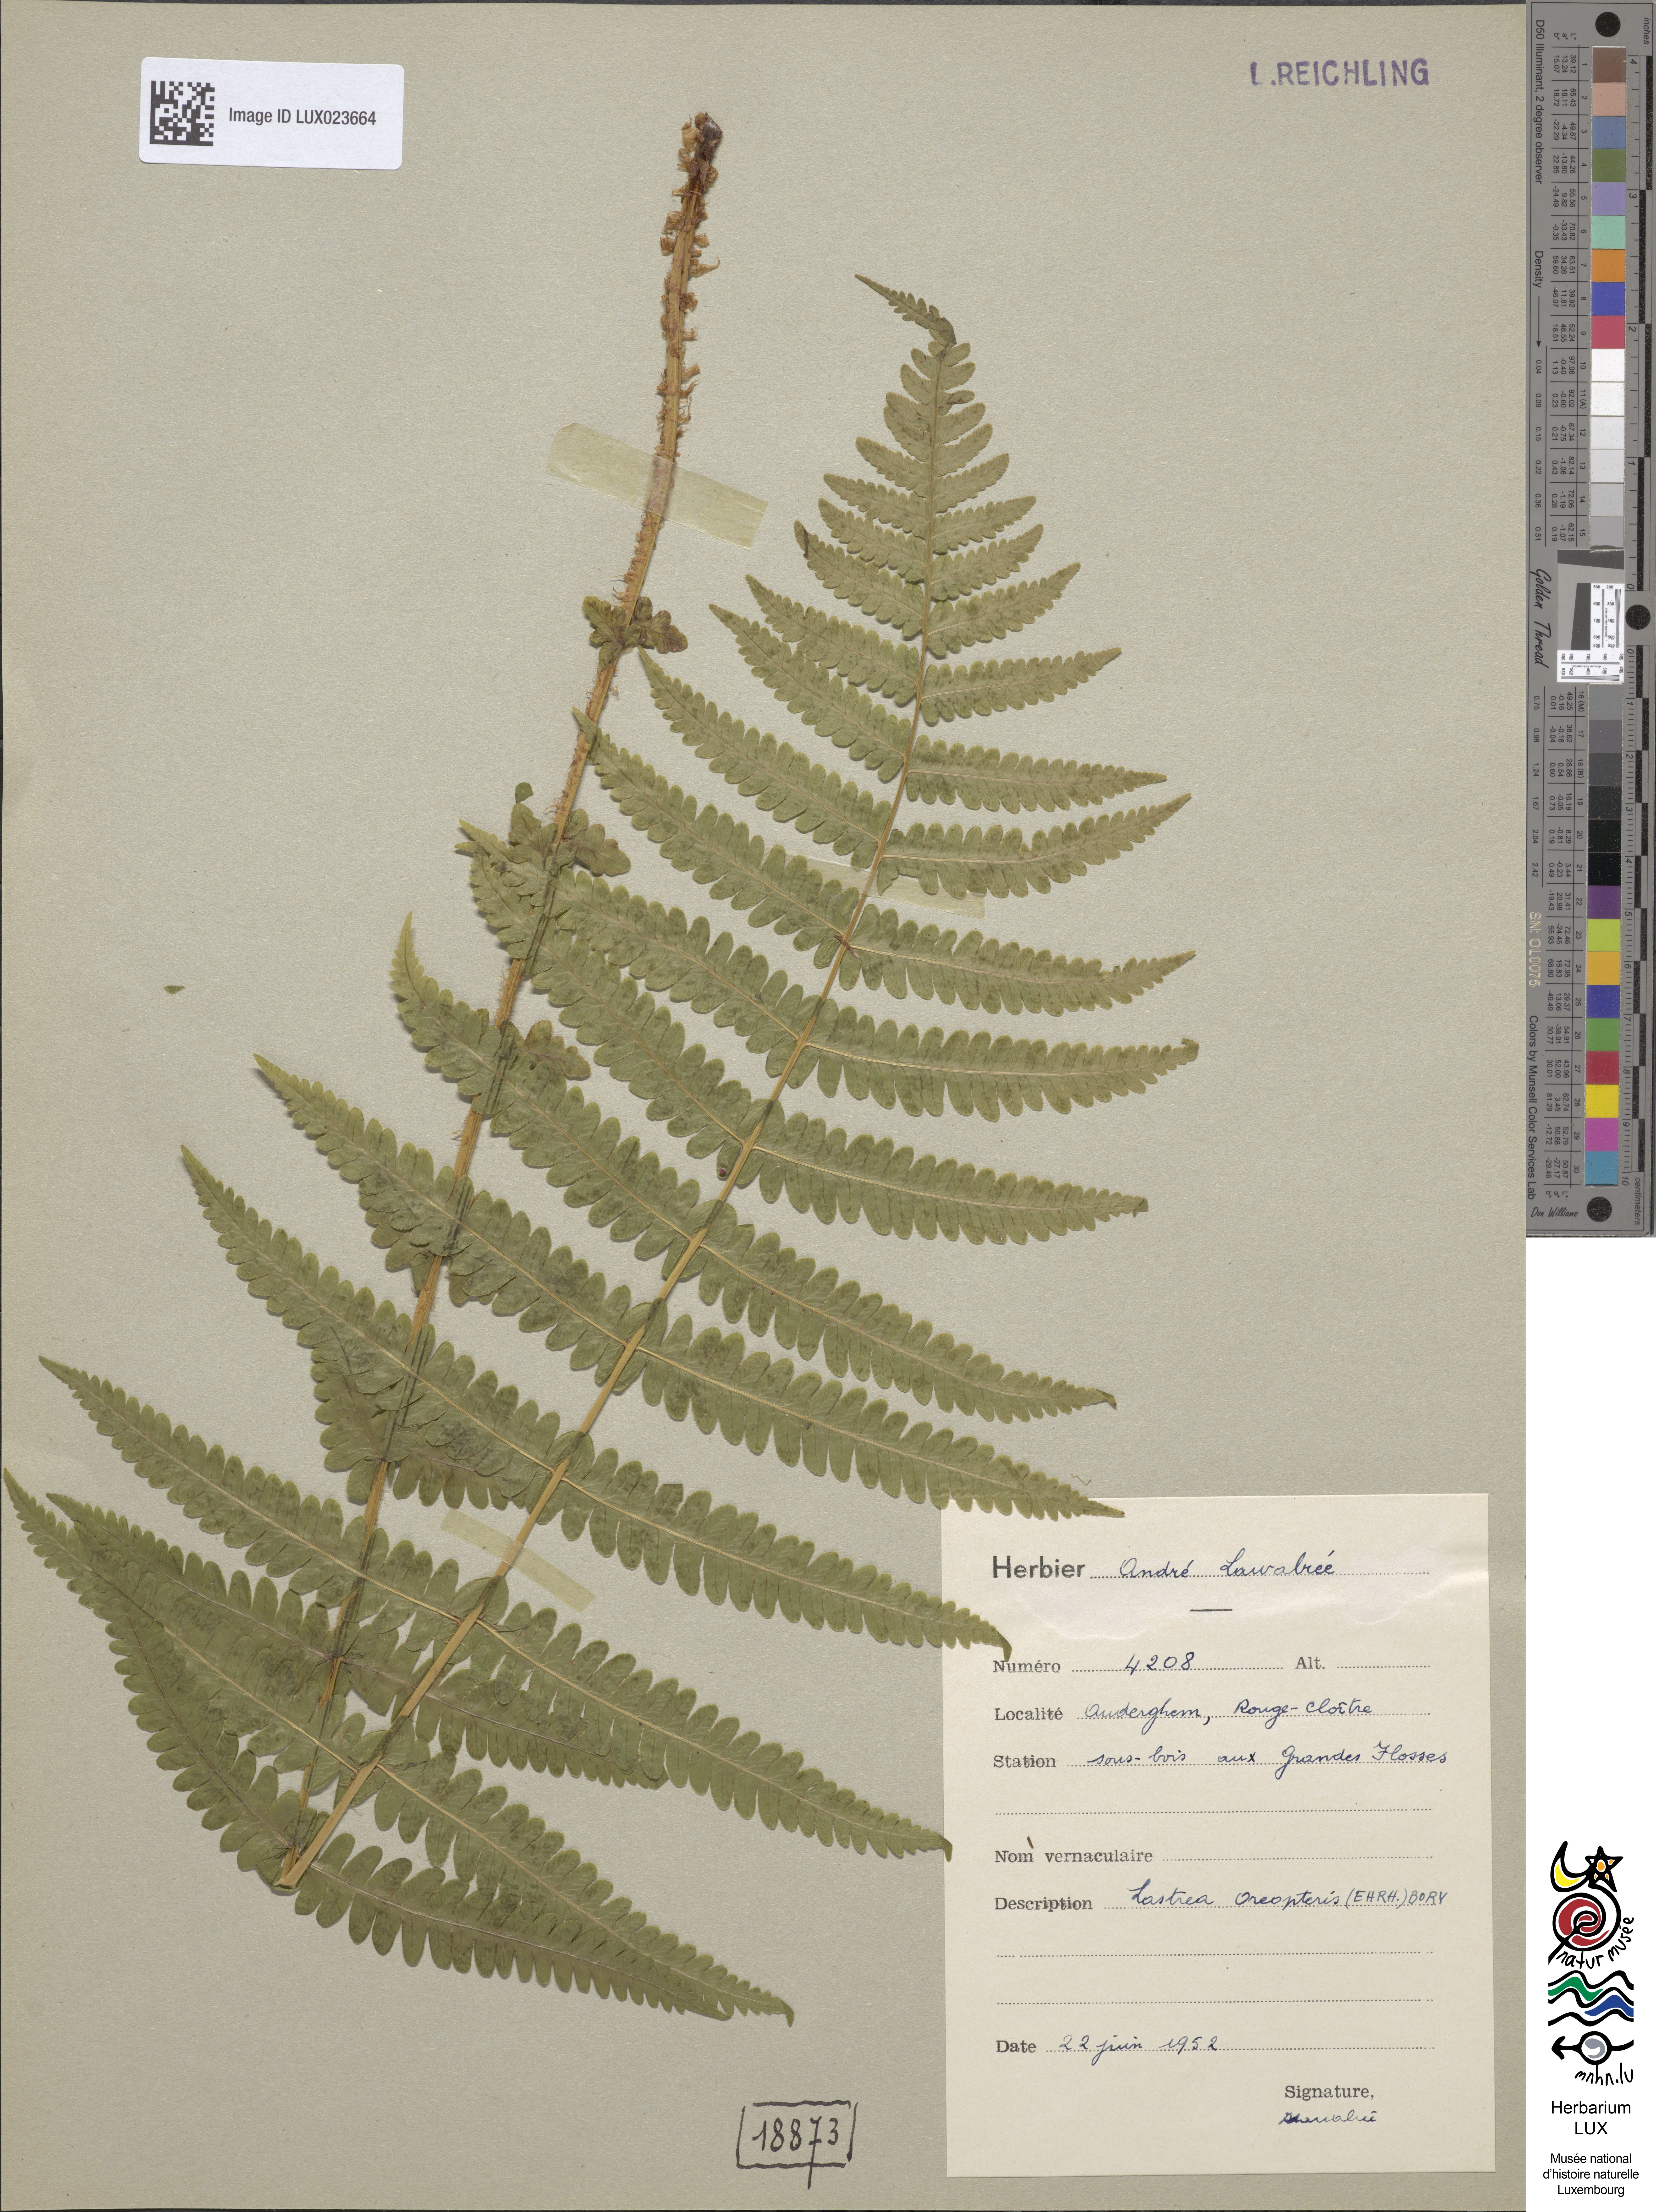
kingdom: Plantae
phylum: Tracheophyta
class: Polypodiopsida
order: Polypodiales
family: Thelypteridaceae
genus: Oreopteris
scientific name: Oreopteris limbosperma
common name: Lemon-scented fern
